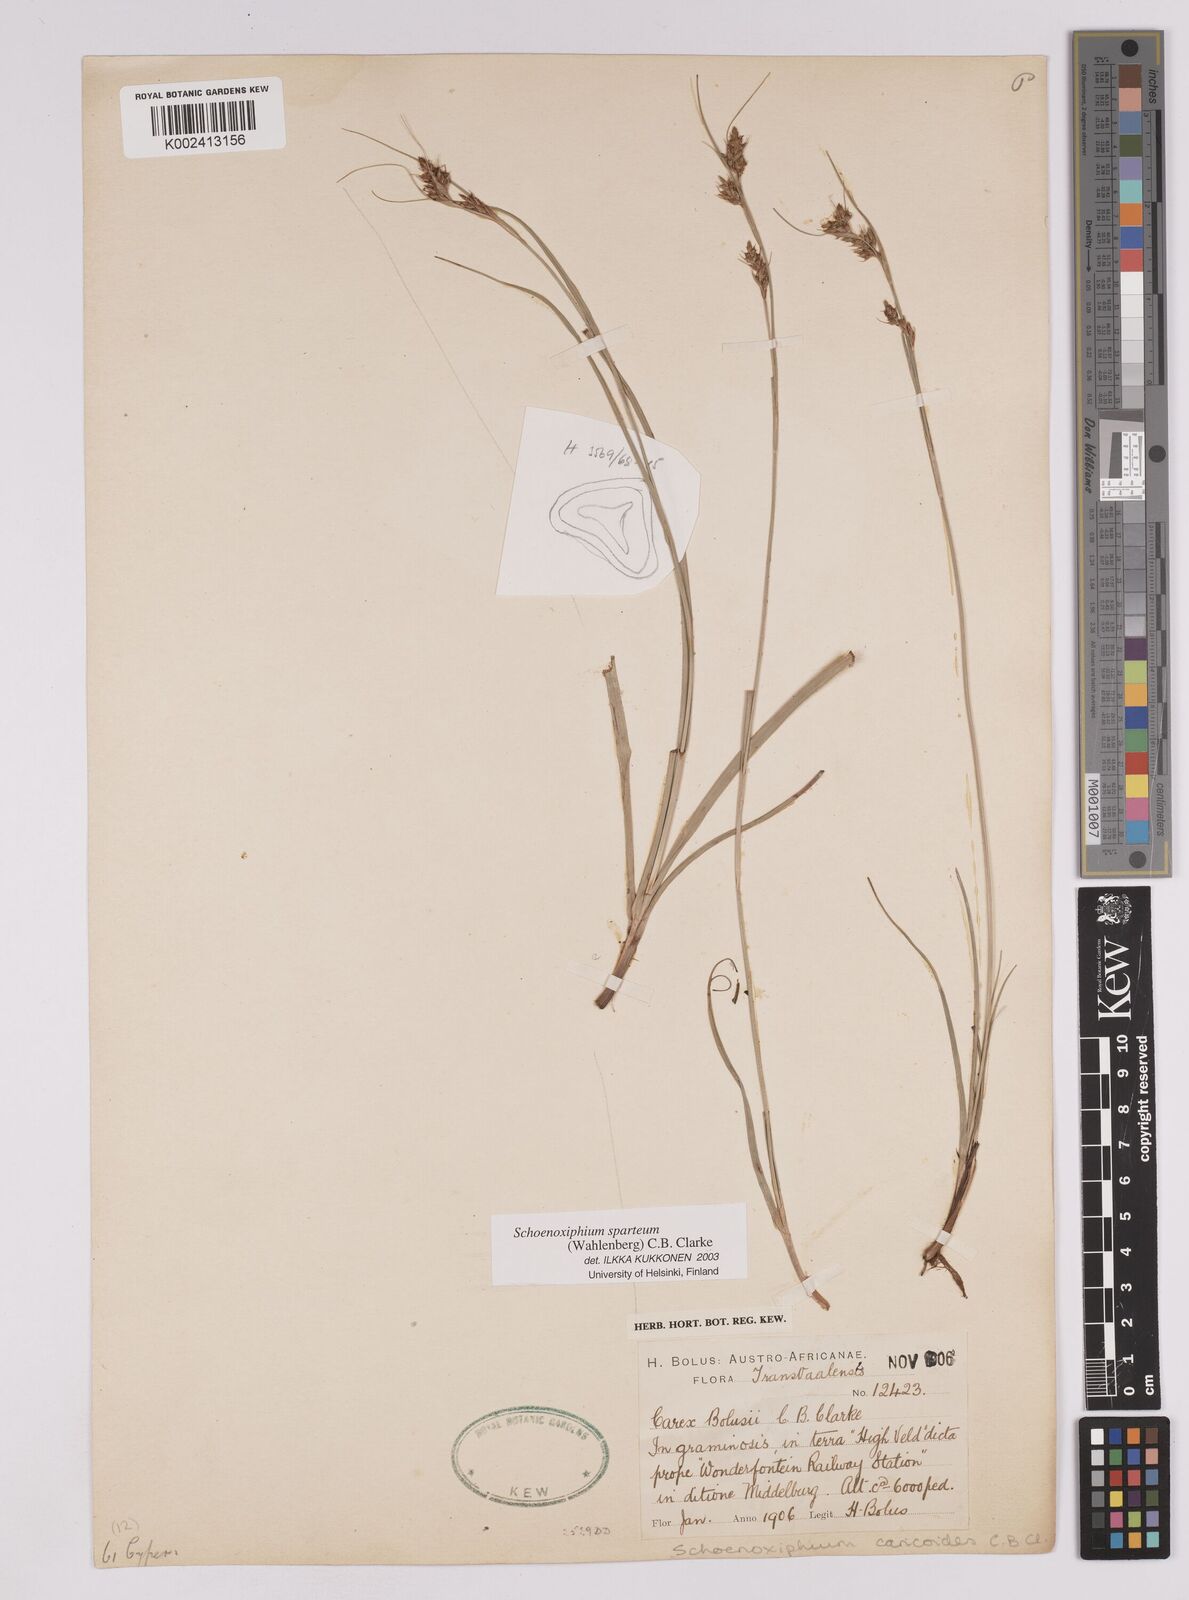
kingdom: Plantae
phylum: Tracheophyta
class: Liliopsida
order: Poales
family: Cyperaceae
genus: Carex
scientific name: Carex spartea
